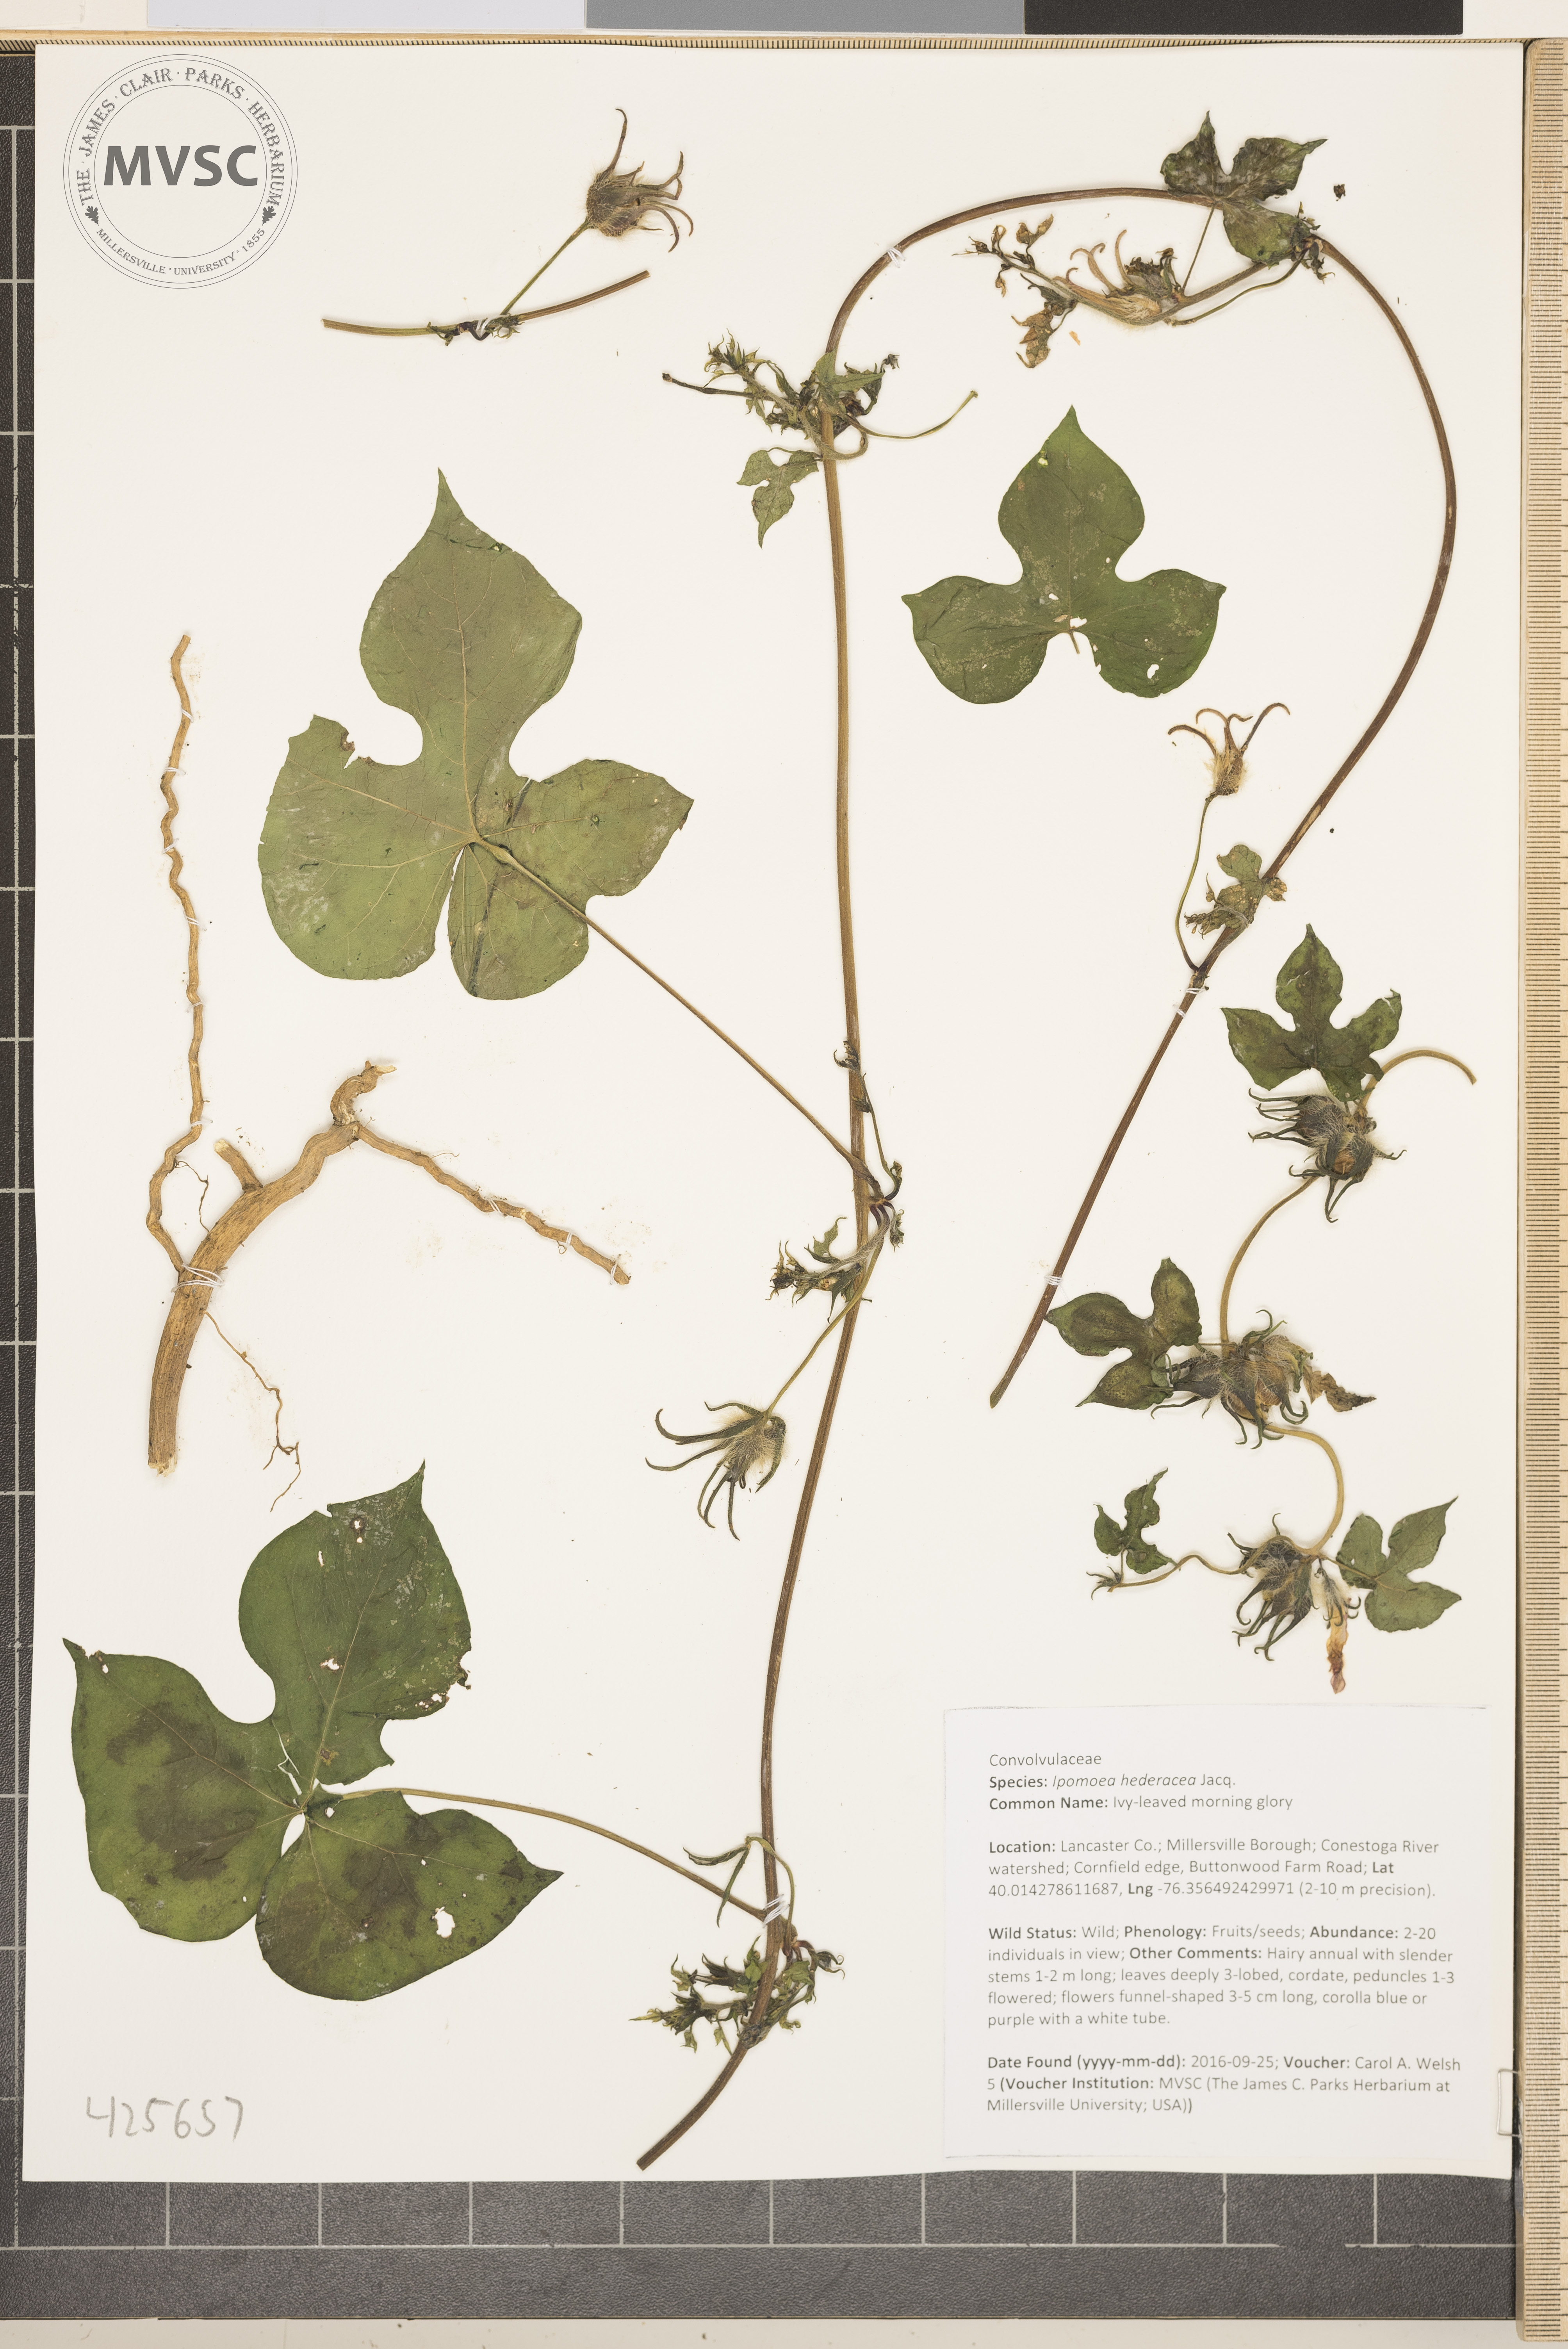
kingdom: Plantae
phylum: Tracheophyta
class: Magnoliopsida
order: Solanales
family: Convolvulaceae
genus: Ipomoea
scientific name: Ipomoea hederacea
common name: Ivy-leaved morning glory
